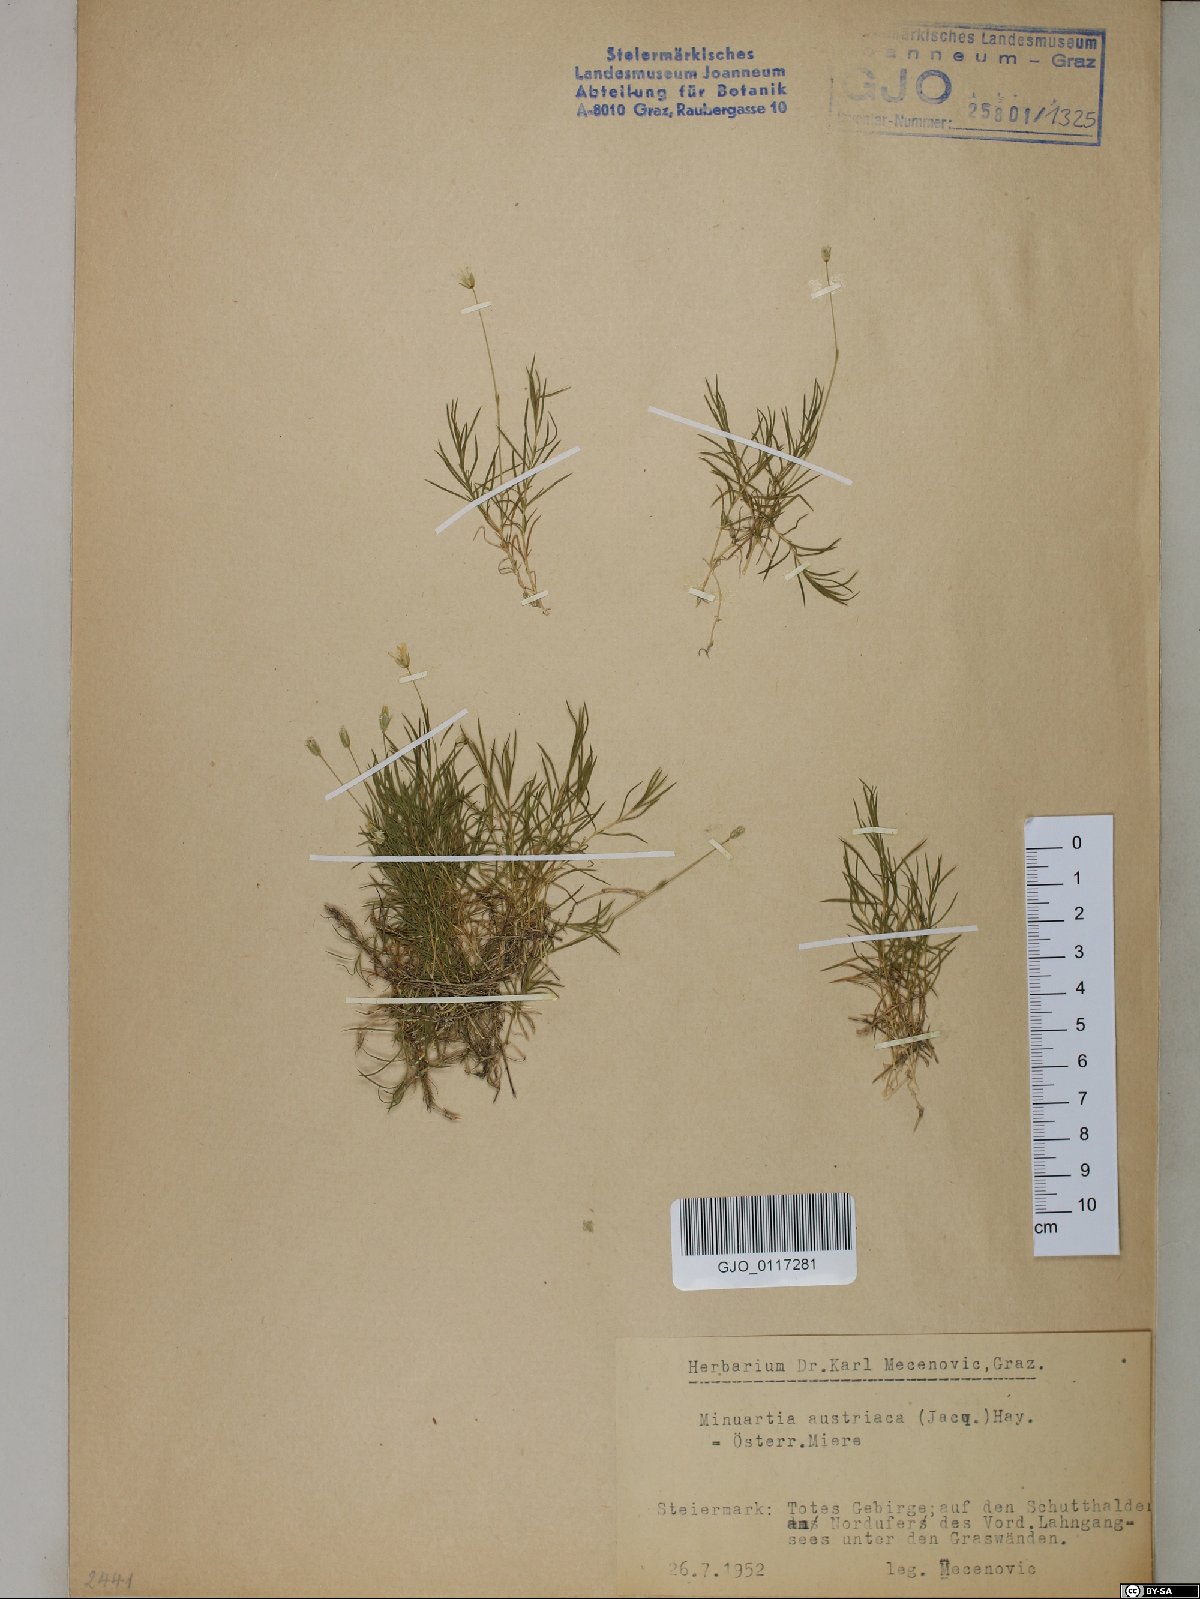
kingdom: Plantae
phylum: Tracheophyta
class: Magnoliopsida
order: Caryophyllales
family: Caryophyllaceae
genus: Sabulina
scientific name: Sabulina austriaca
